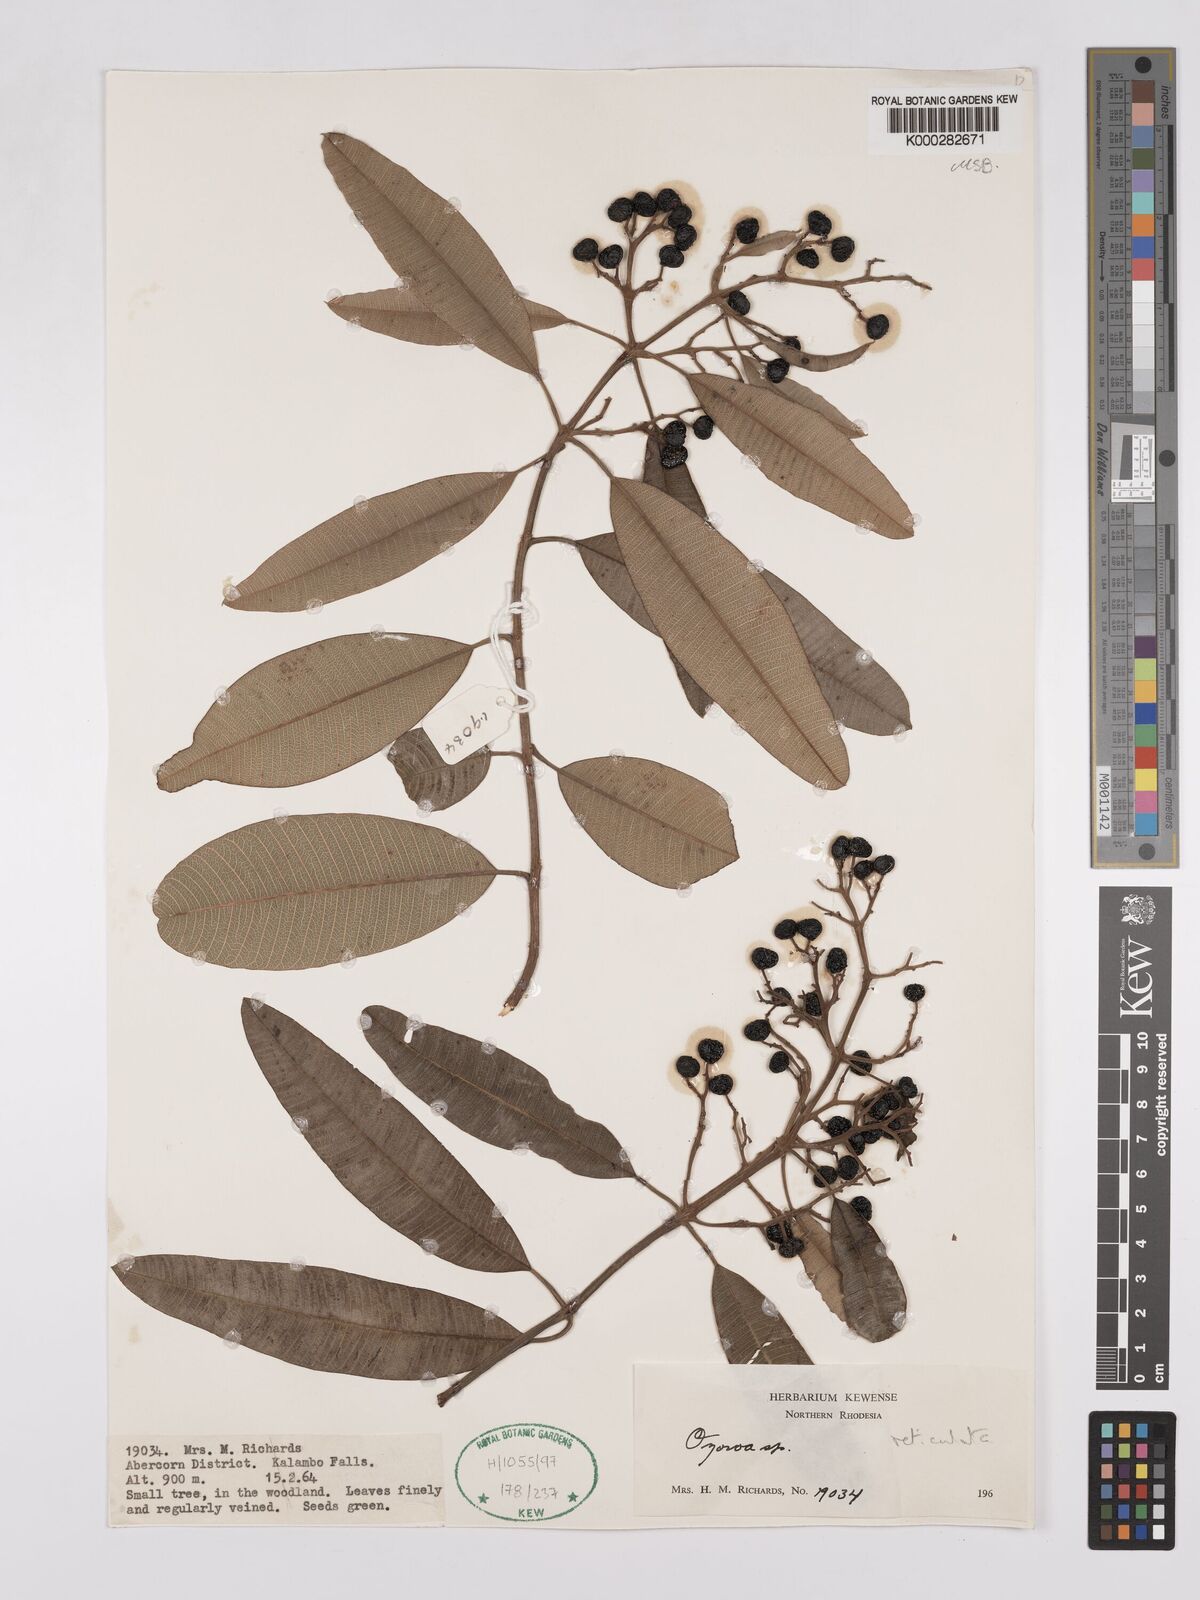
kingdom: Plantae
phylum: Tracheophyta
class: Magnoliopsida
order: Sapindales
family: Anacardiaceae
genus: Ozoroa
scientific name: Ozoroa insignis
